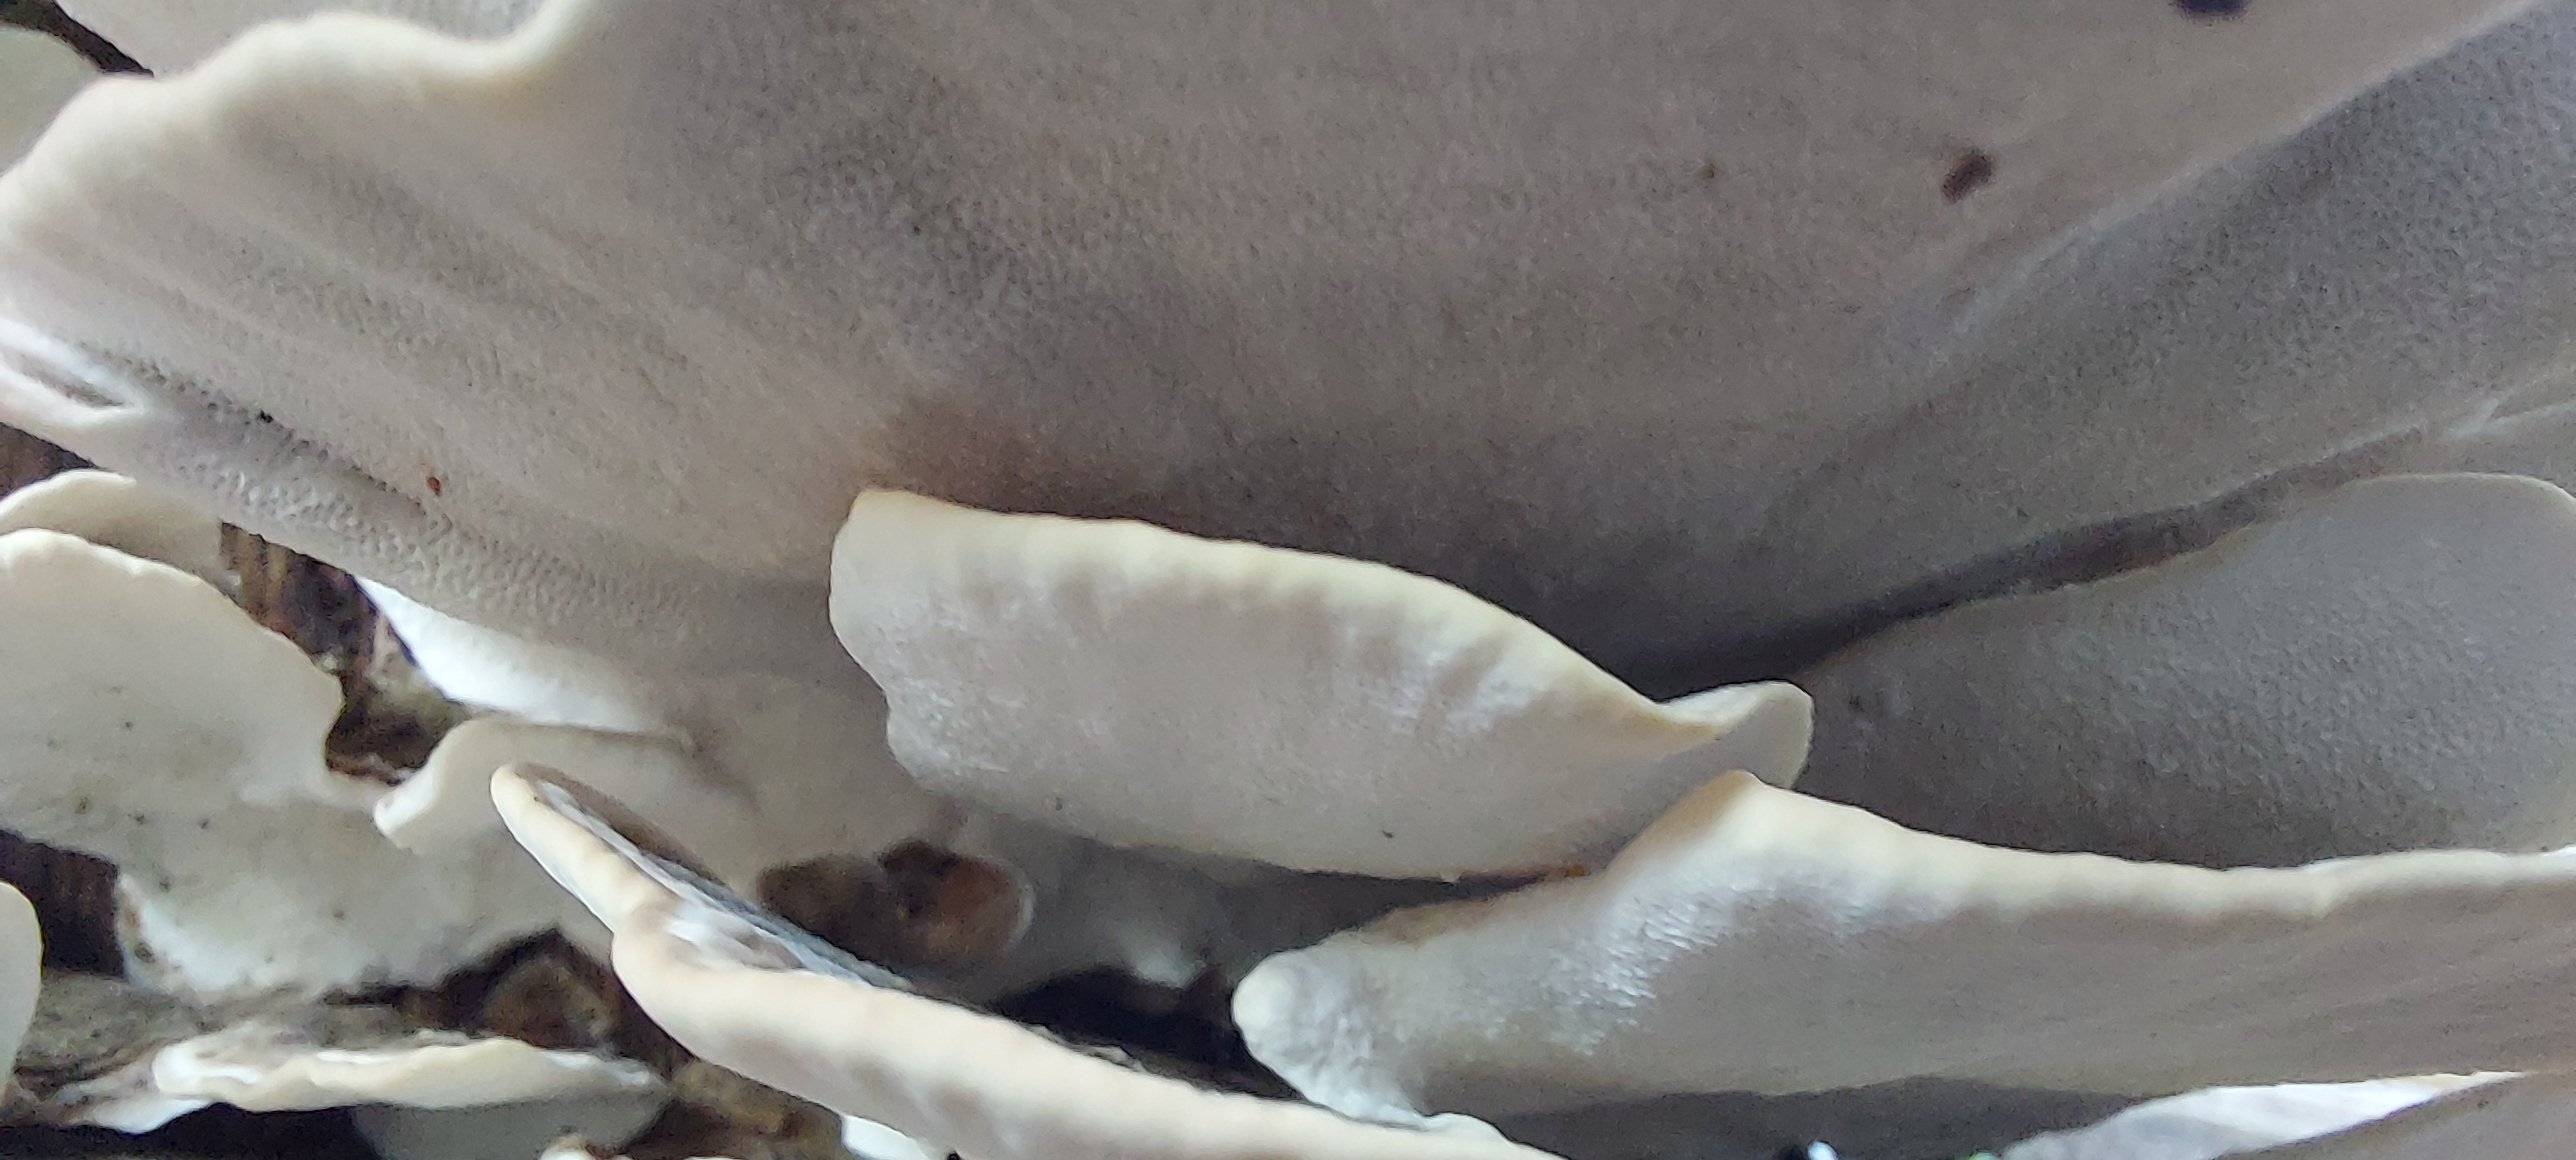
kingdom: Fungi
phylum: Basidiomycota
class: Agaricomycetes
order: Polyporales
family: Polyporaceae
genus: Trametes
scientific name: Trametes versicolor
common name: broget læderporesvamp
